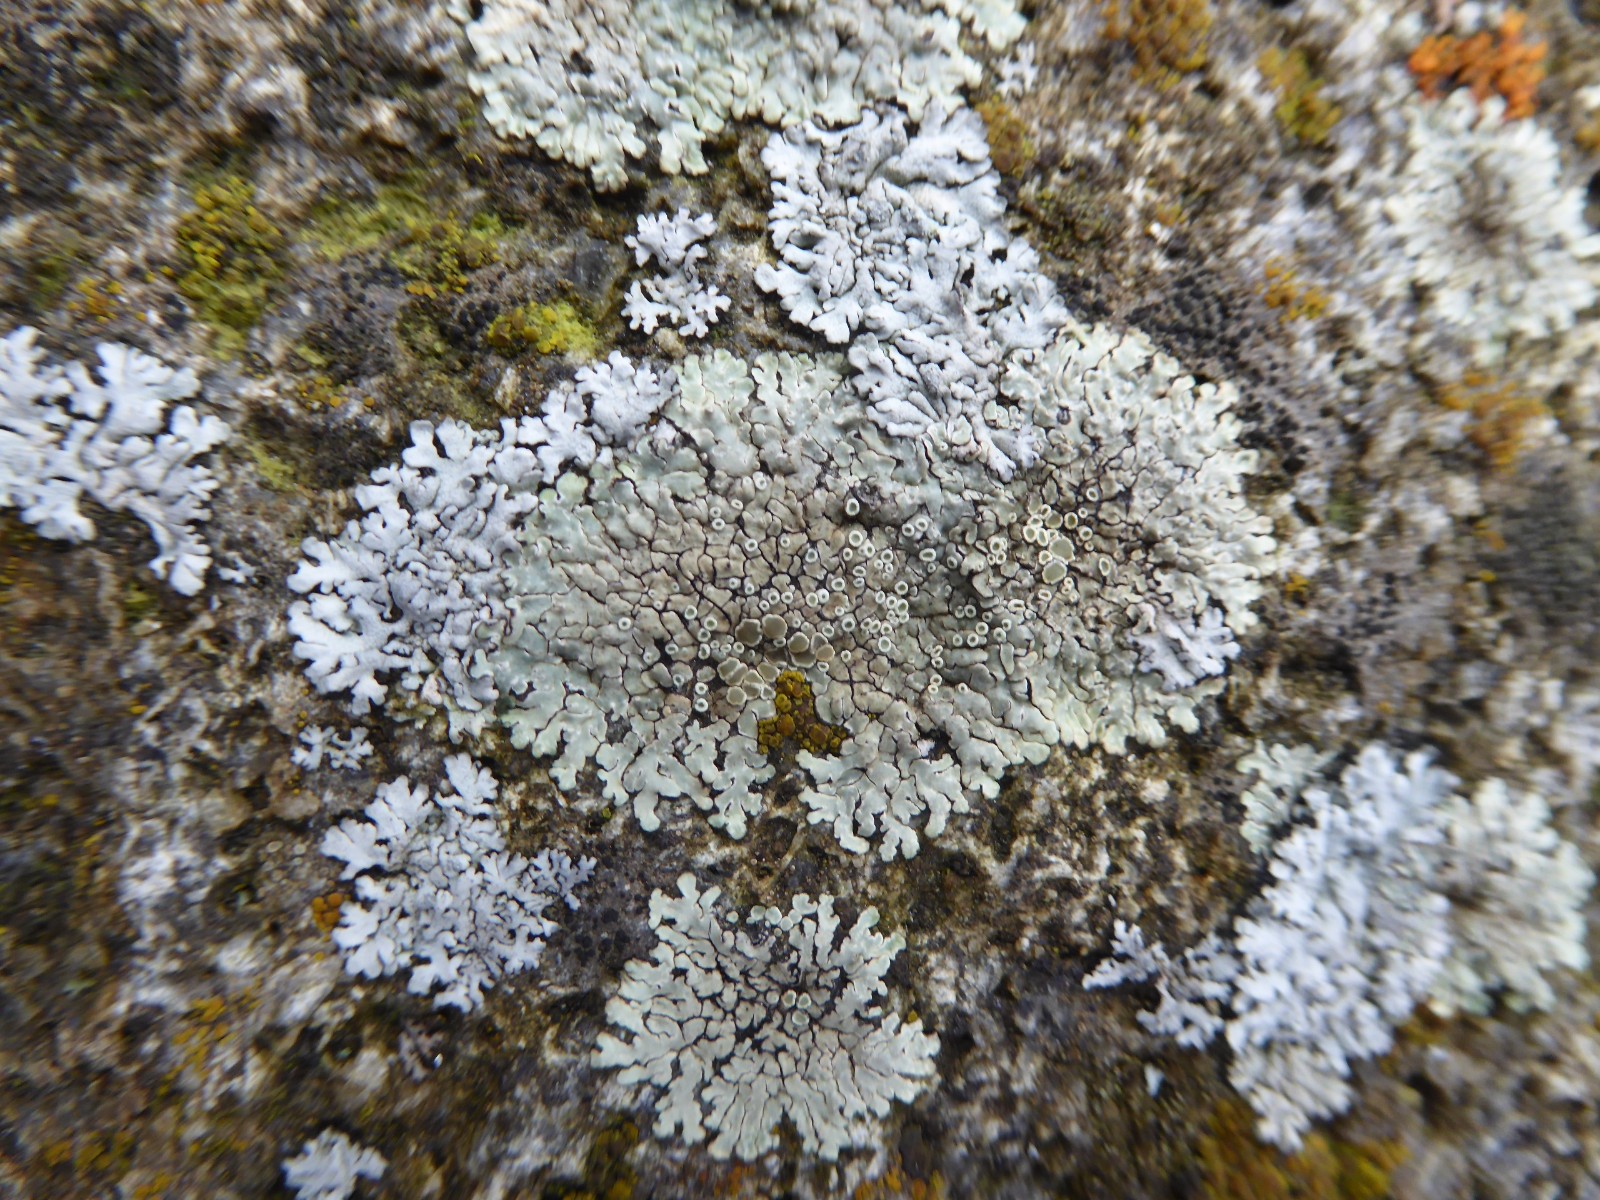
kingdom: Fungi
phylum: Ascomycota
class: Lecanoromycetes
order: Lecanorales
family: Lecanoraceae
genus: Protoparmeliopsis
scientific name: Protoparmeliopsis muralis
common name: randfliget kantskivelav
